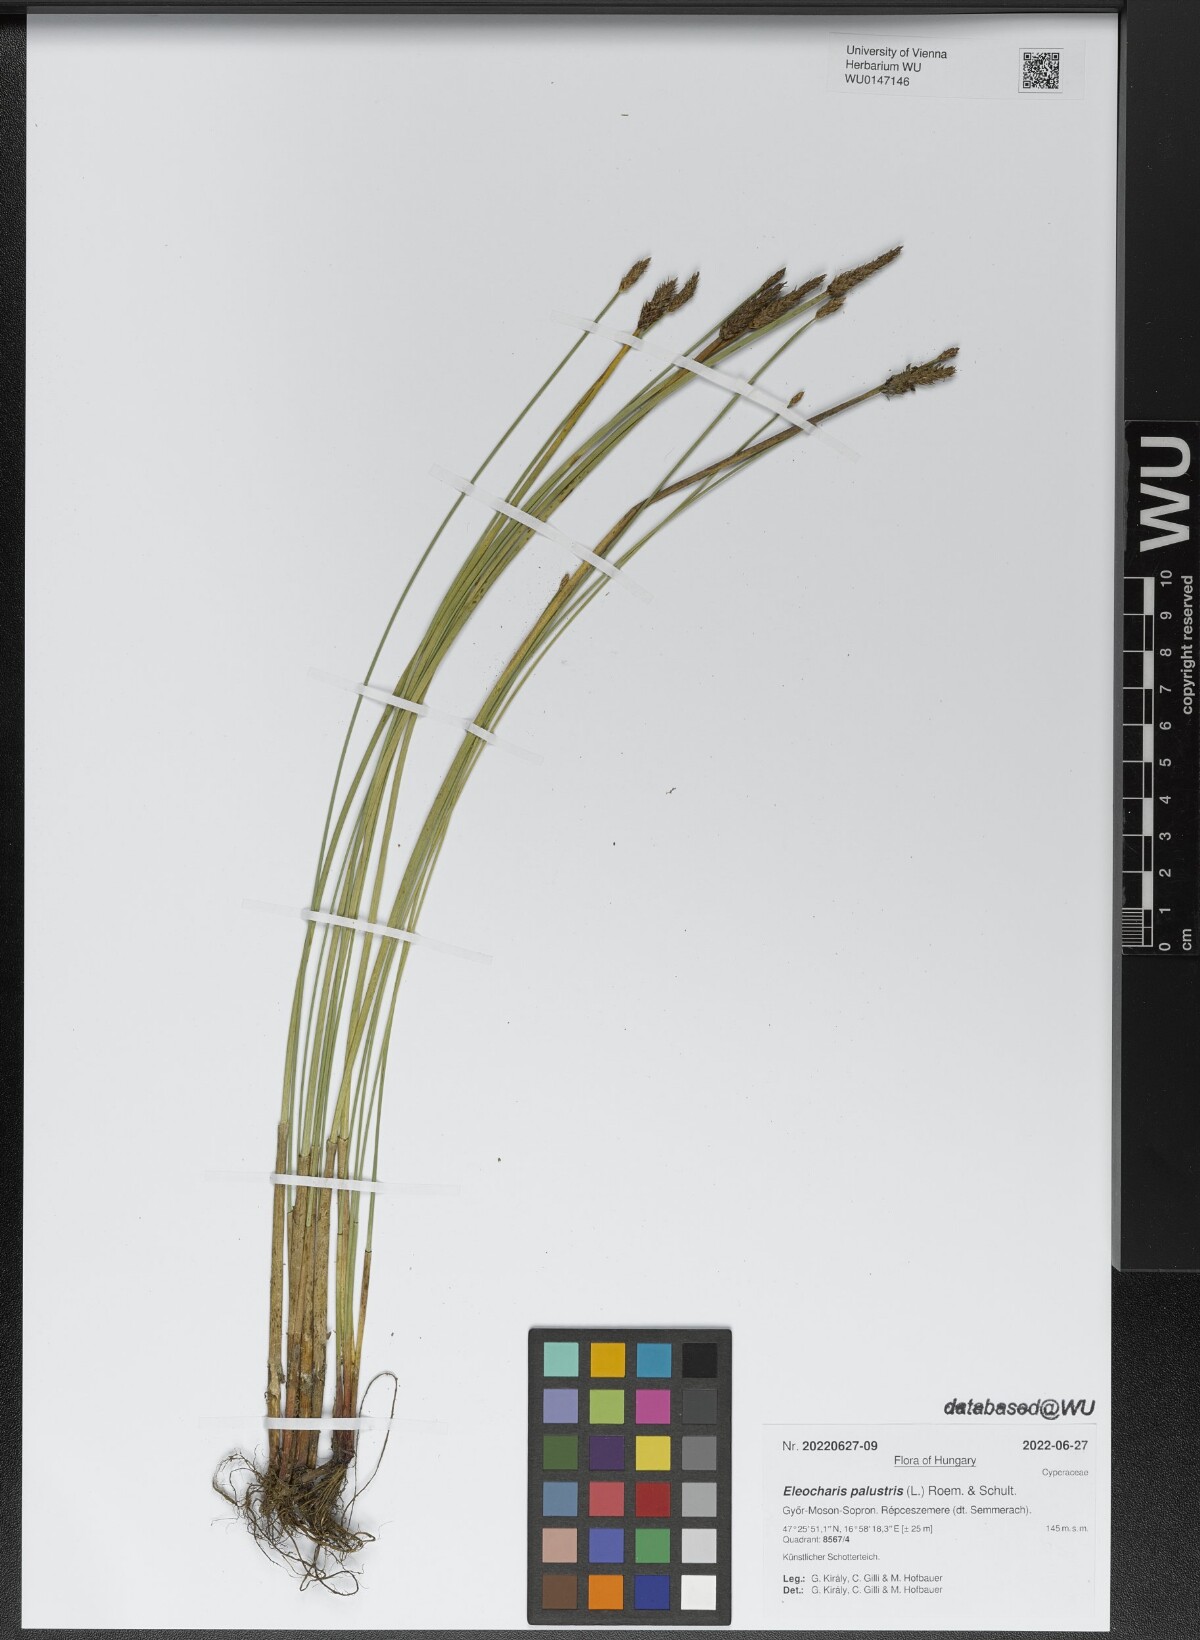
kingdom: Plantae
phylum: Tracheophyta
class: Liliopsida
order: Poales
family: Cyperaceae
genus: Eleocharis
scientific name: Eleocharis palustris
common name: Common spike-rush
